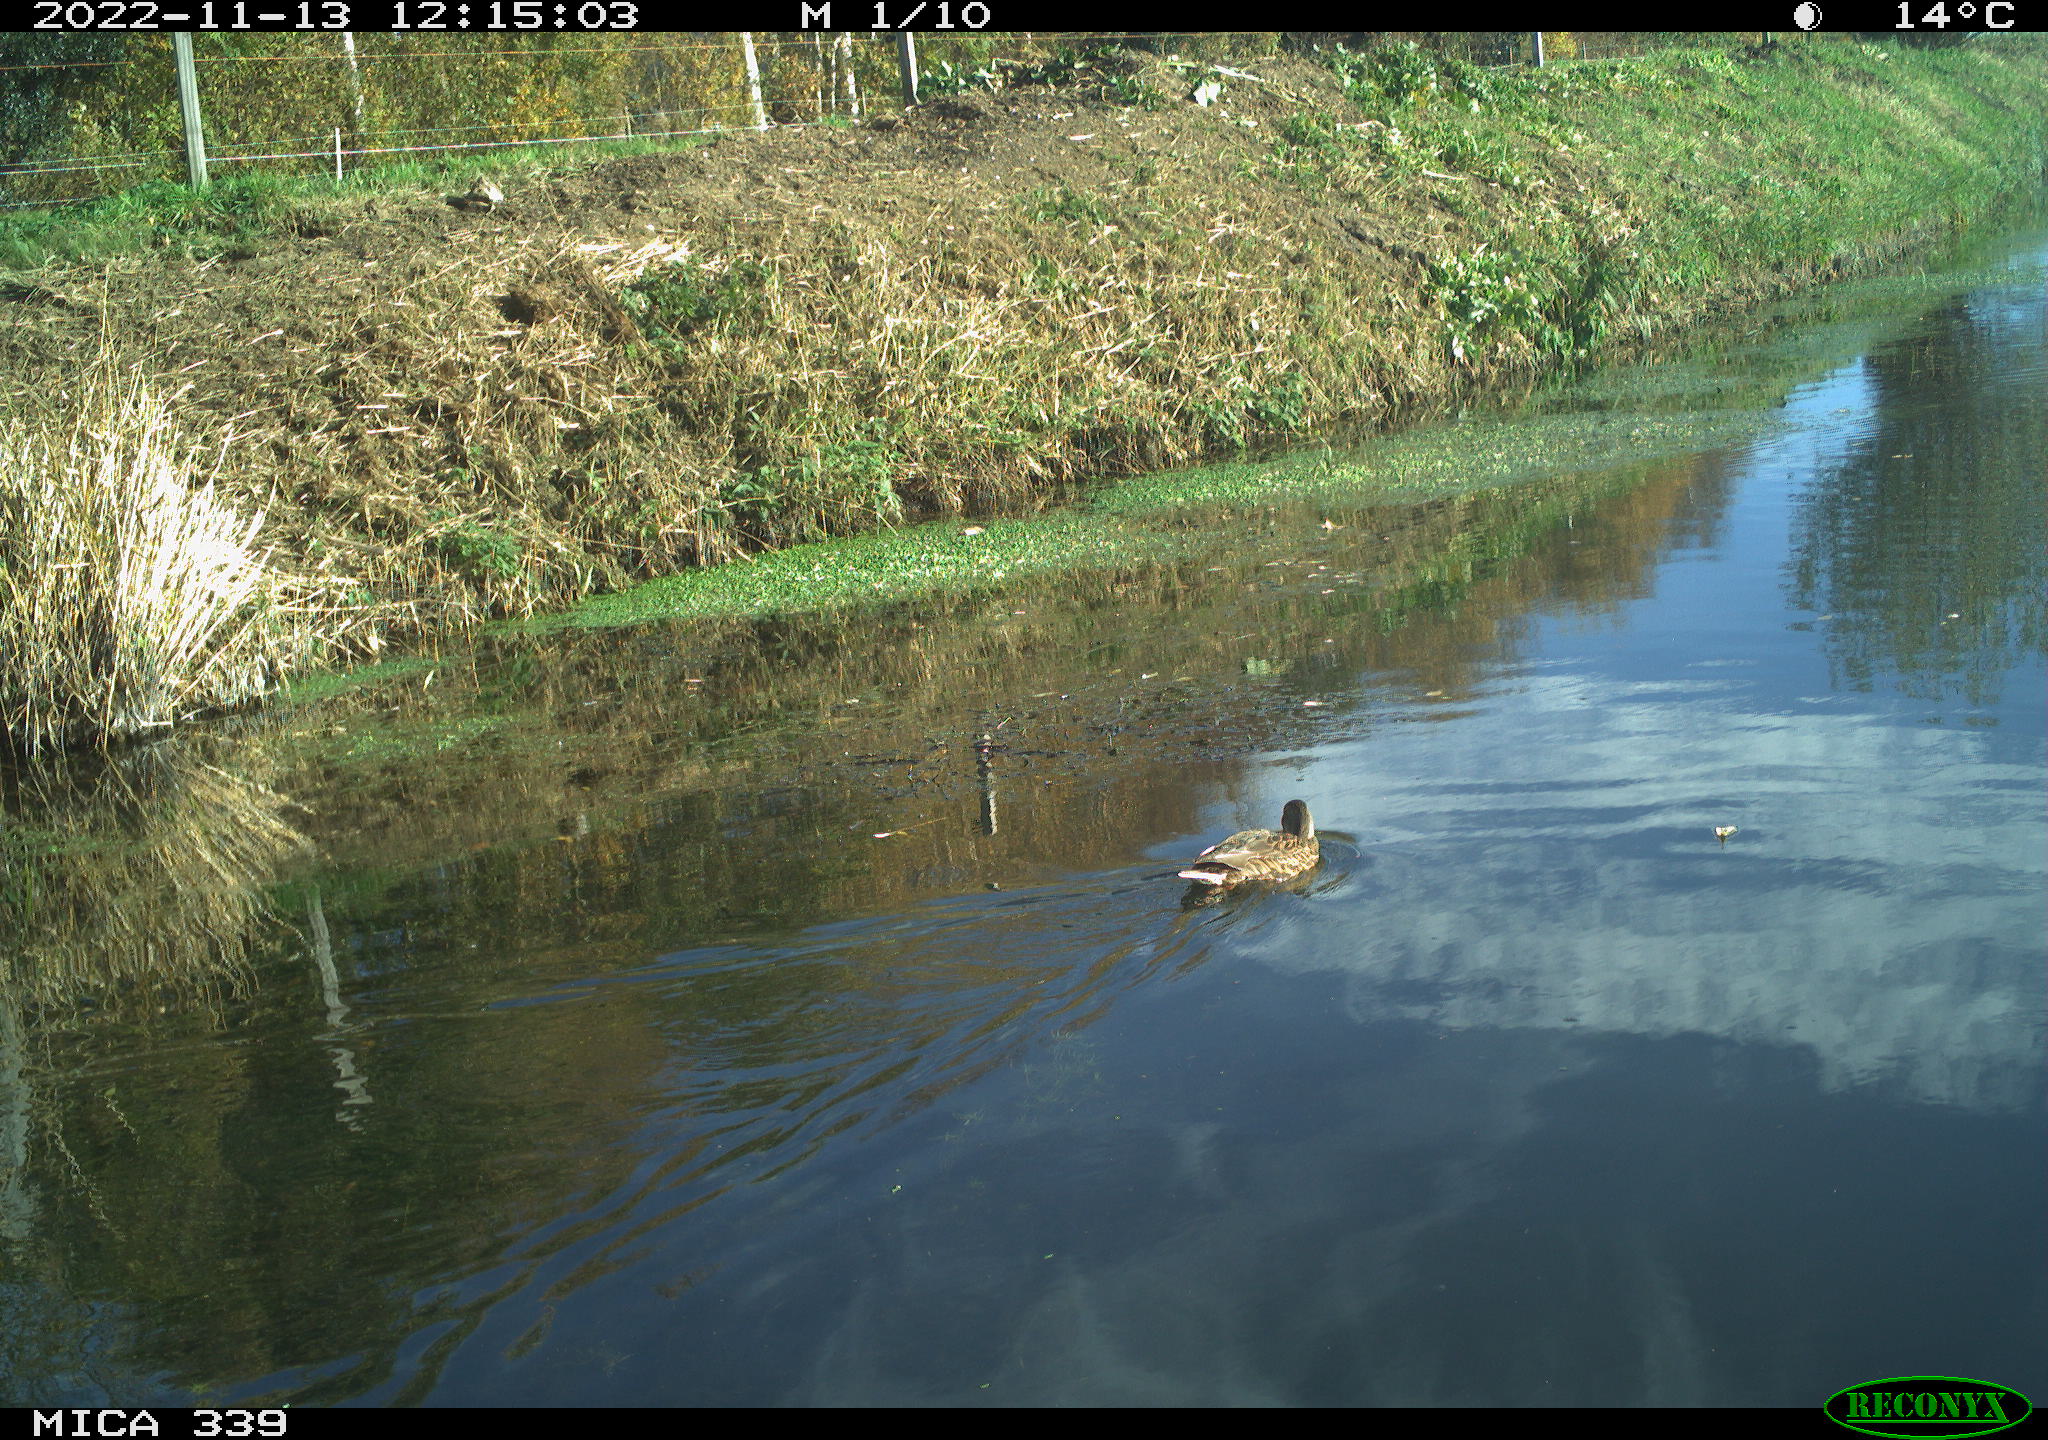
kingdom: Animalia
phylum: Chordata
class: Aves
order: Anseriformes
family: Anatidae
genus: Anas
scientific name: Anas platyrhynchos
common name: Mallard
